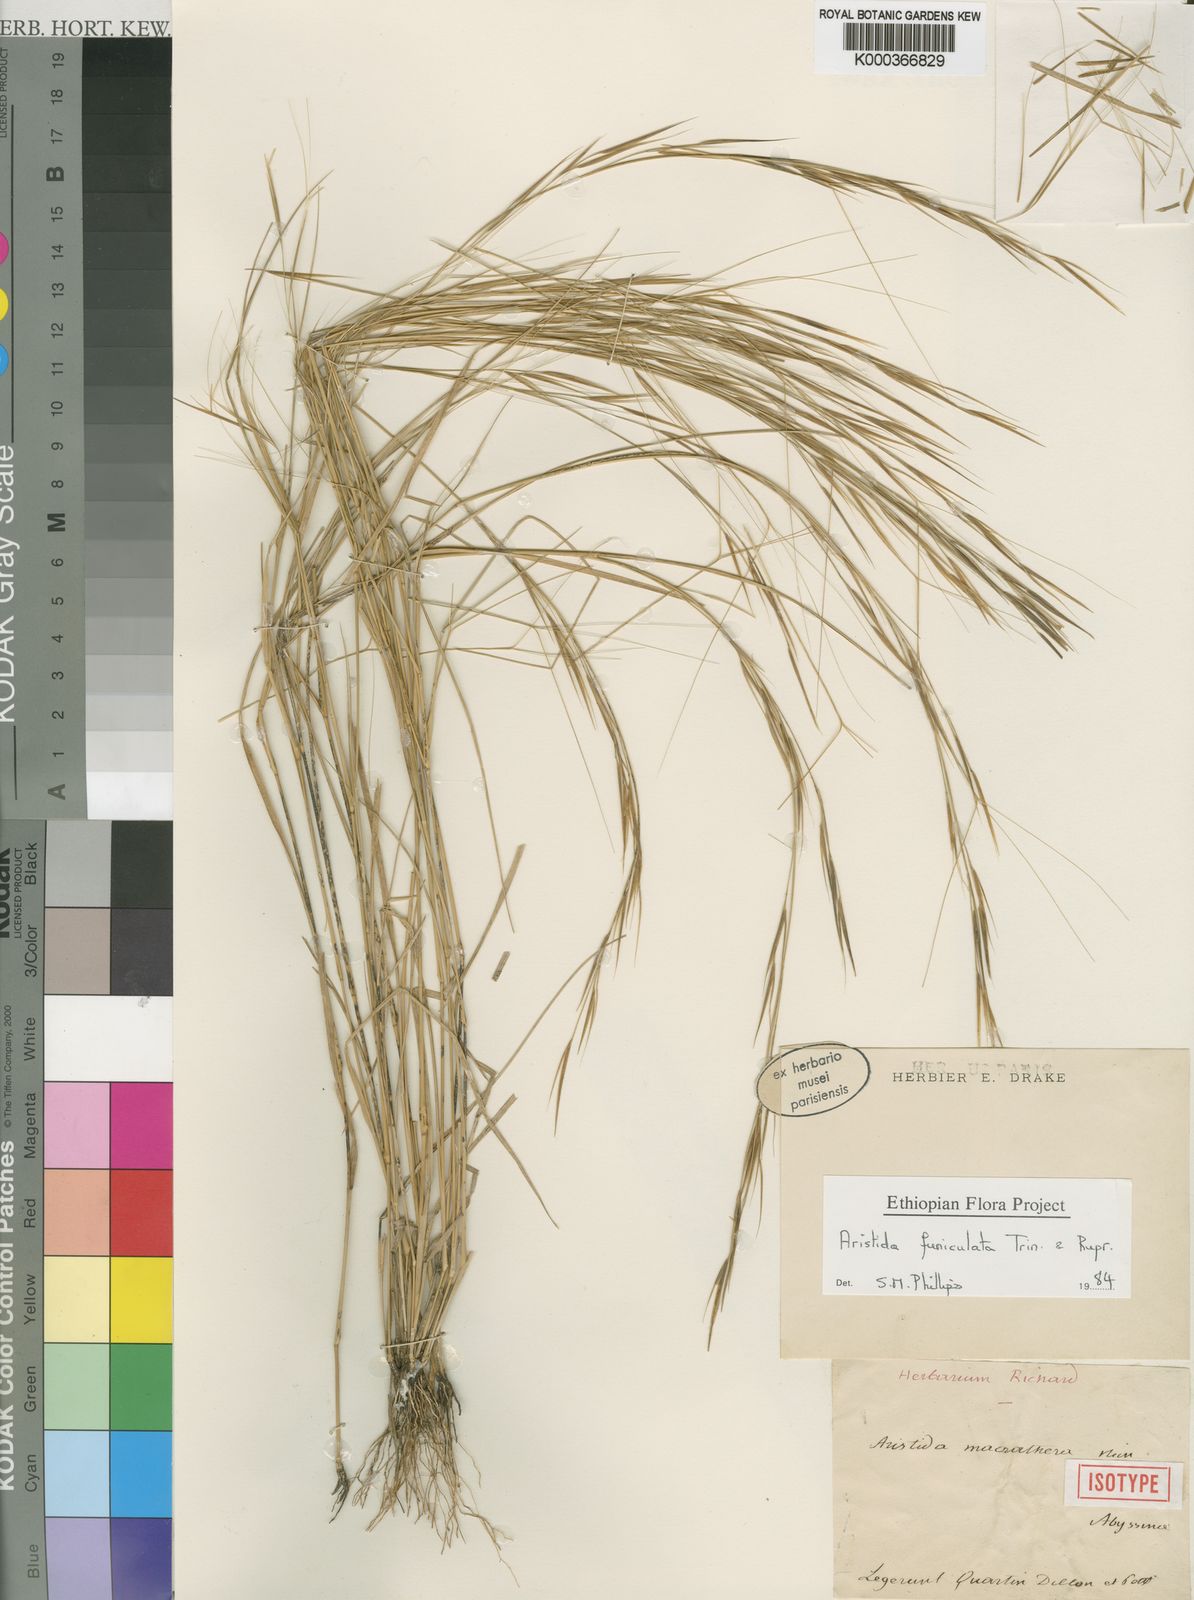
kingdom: Plantae
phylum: Tracheophyta
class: Liliopsida
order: Poales
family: Poaceae
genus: Aristida
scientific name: Aristida funiculata
